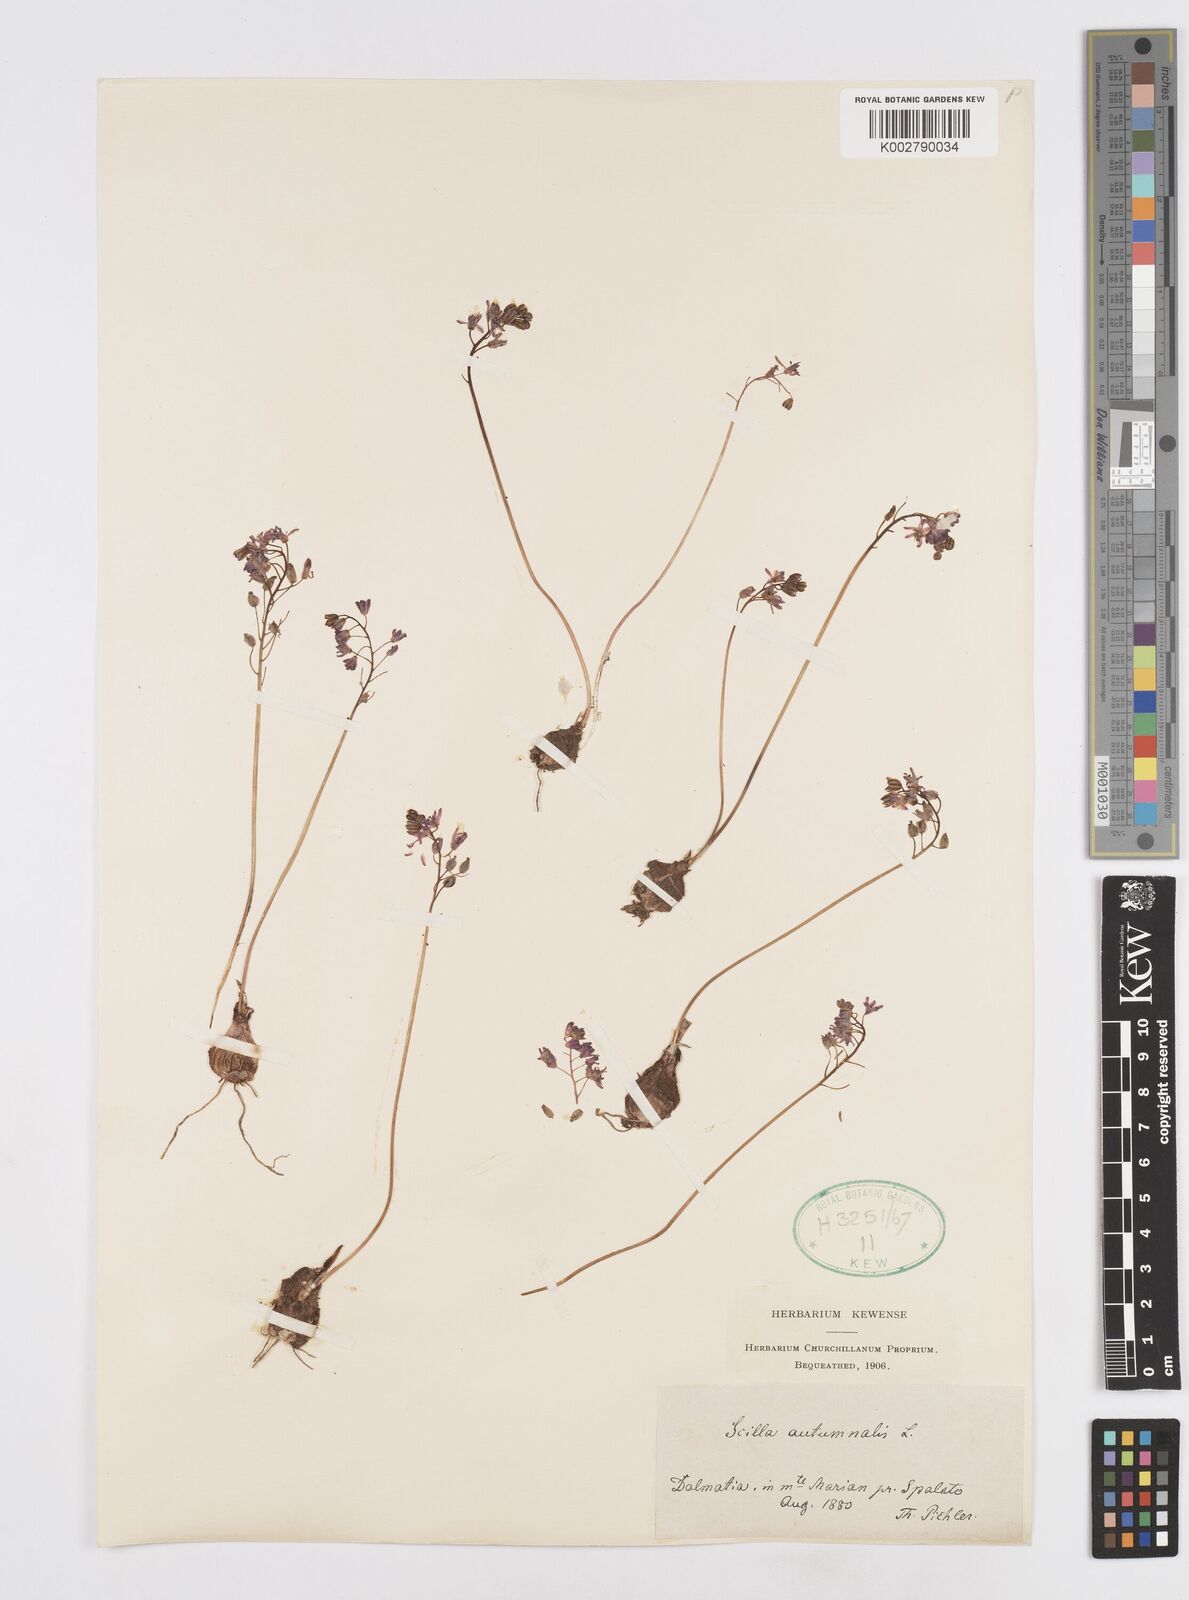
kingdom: Plantae
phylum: Tracheophyta
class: Liliopsida
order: Asparagales
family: Asparagaceae
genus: Prospero
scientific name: Prospero autumnale
